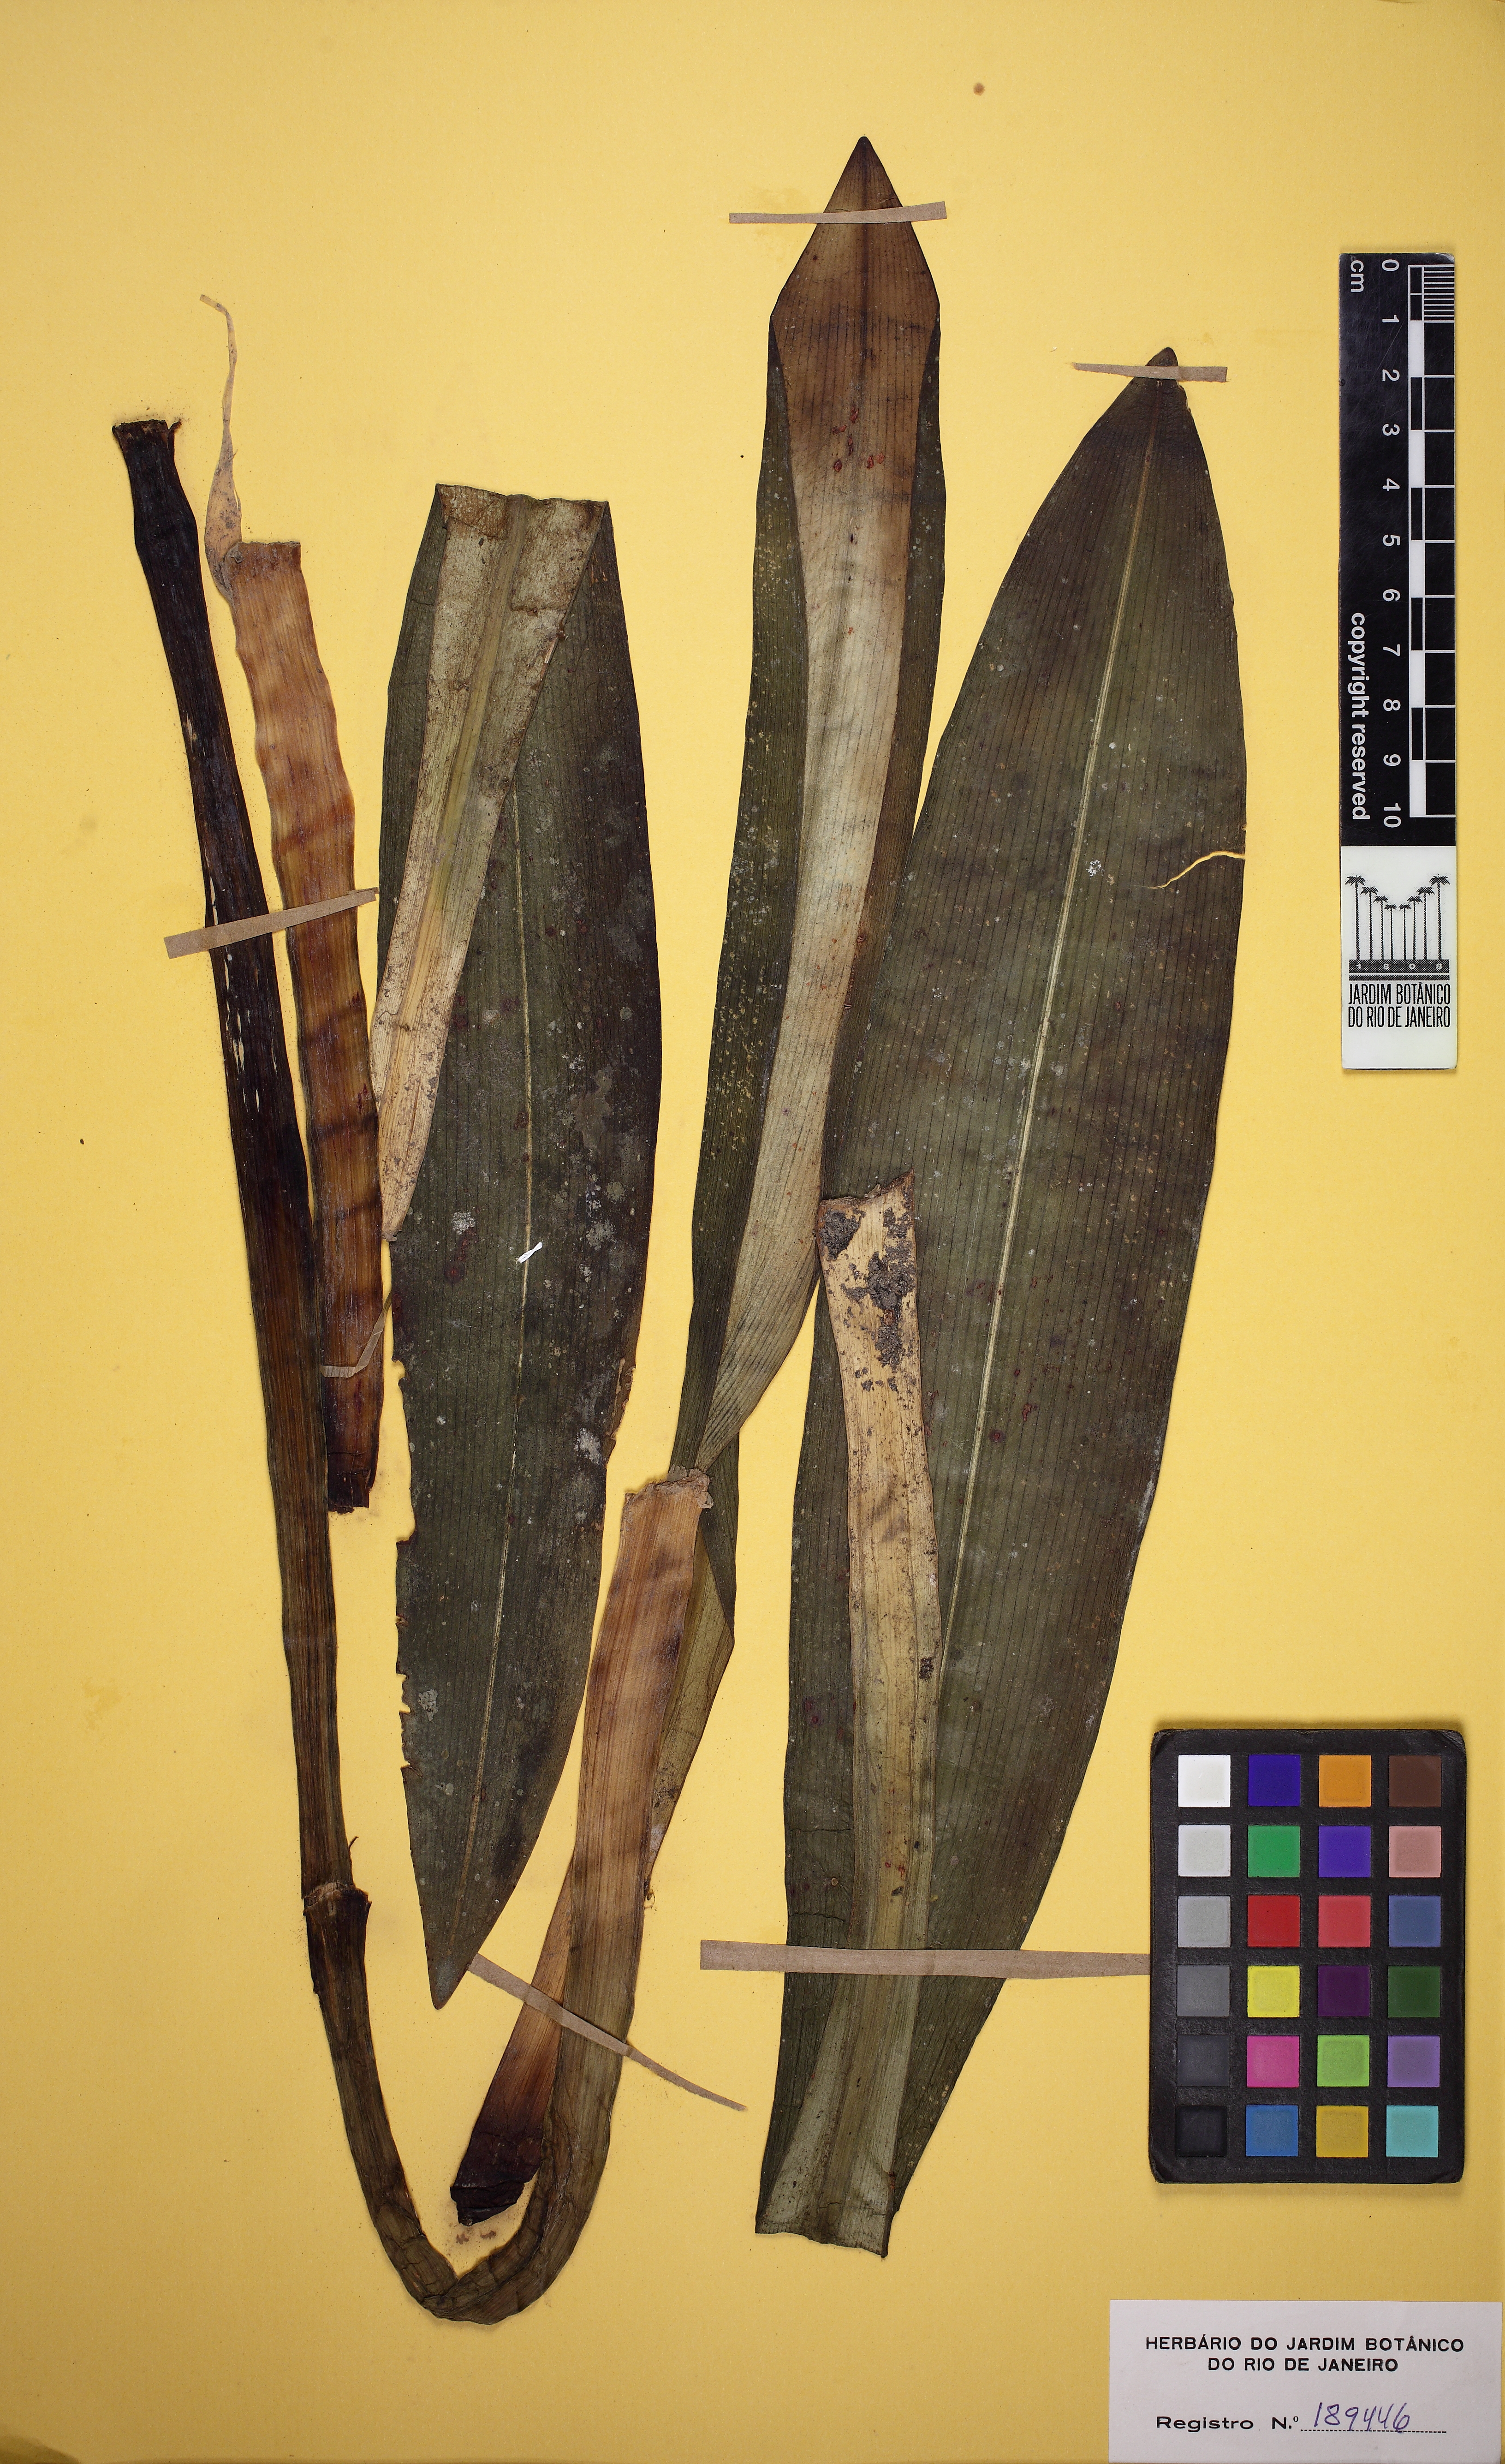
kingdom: Plantae
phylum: Tracheophyta
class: Liliopsida
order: Asparagales
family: Amaryllidaceae
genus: Hippeastrum
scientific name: Hippeastrum reticulatum
